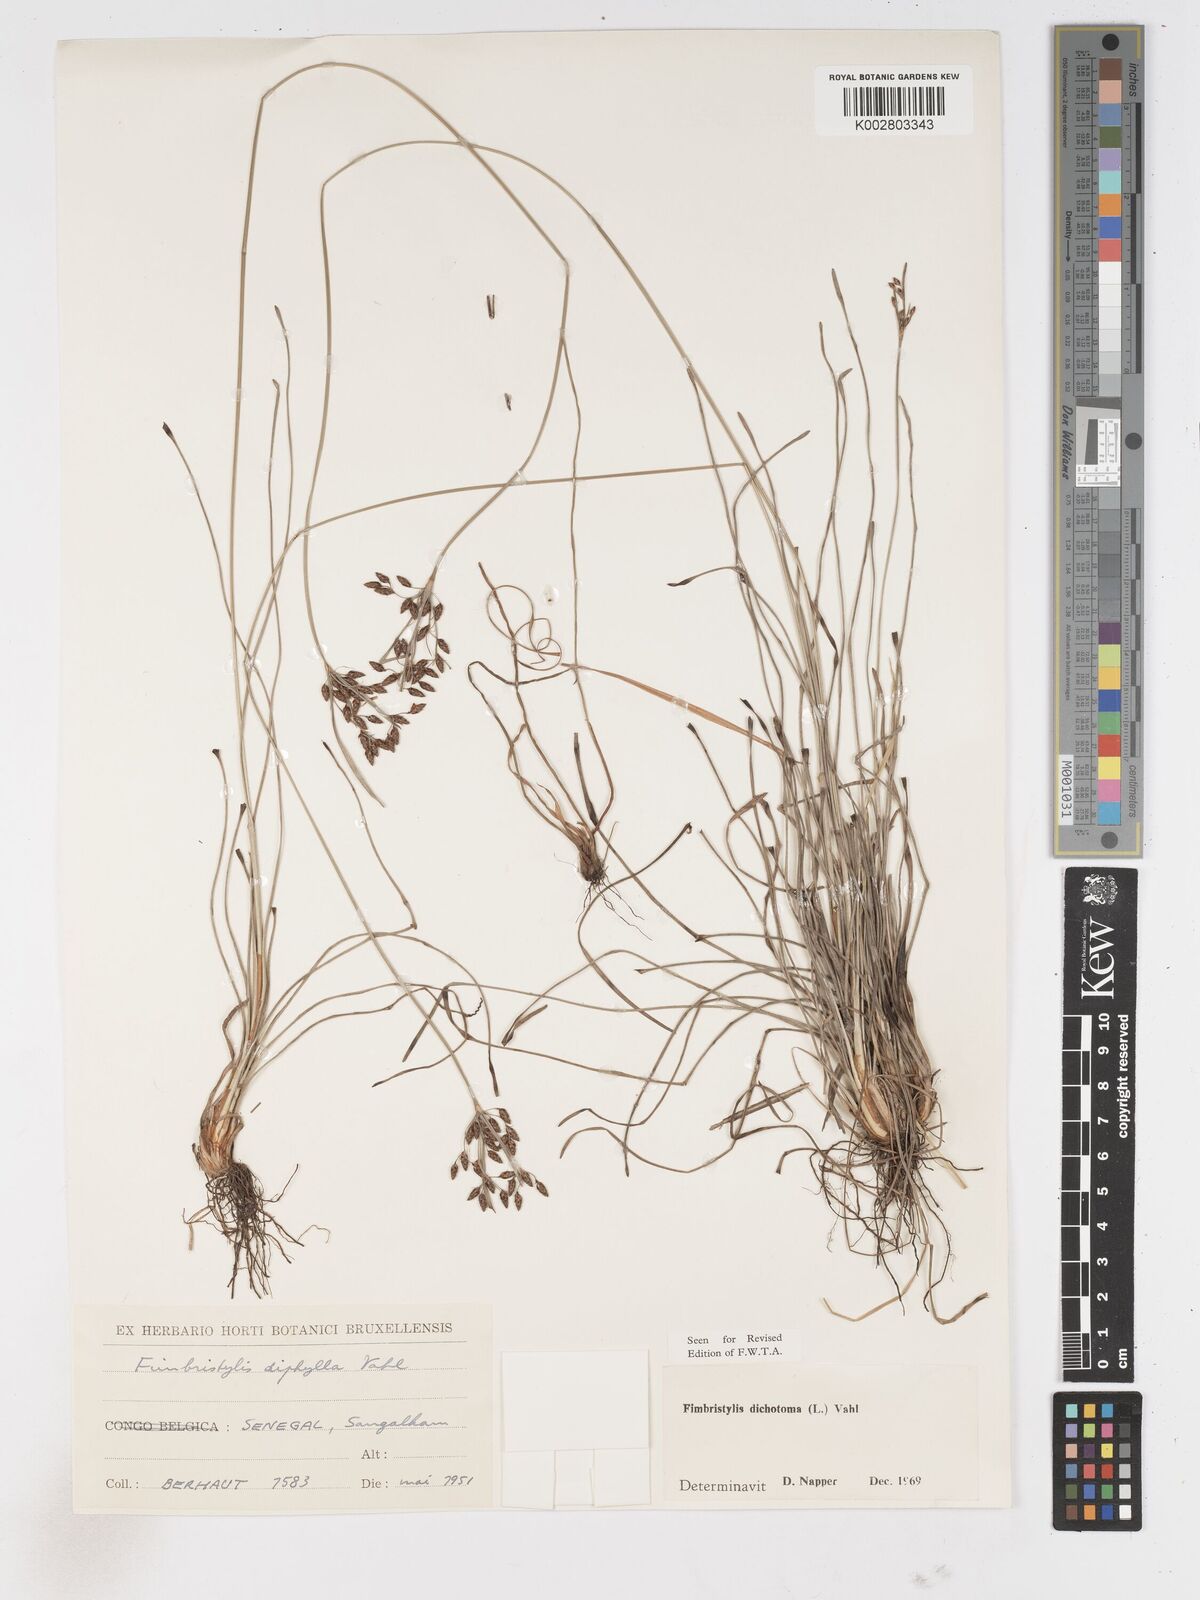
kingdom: Plantae
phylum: Tracheophyta
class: Liliopsida
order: Poales
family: Cyperaceae
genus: Fimbristylis
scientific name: Fimbristylis dichotoma
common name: Forked fimbry
